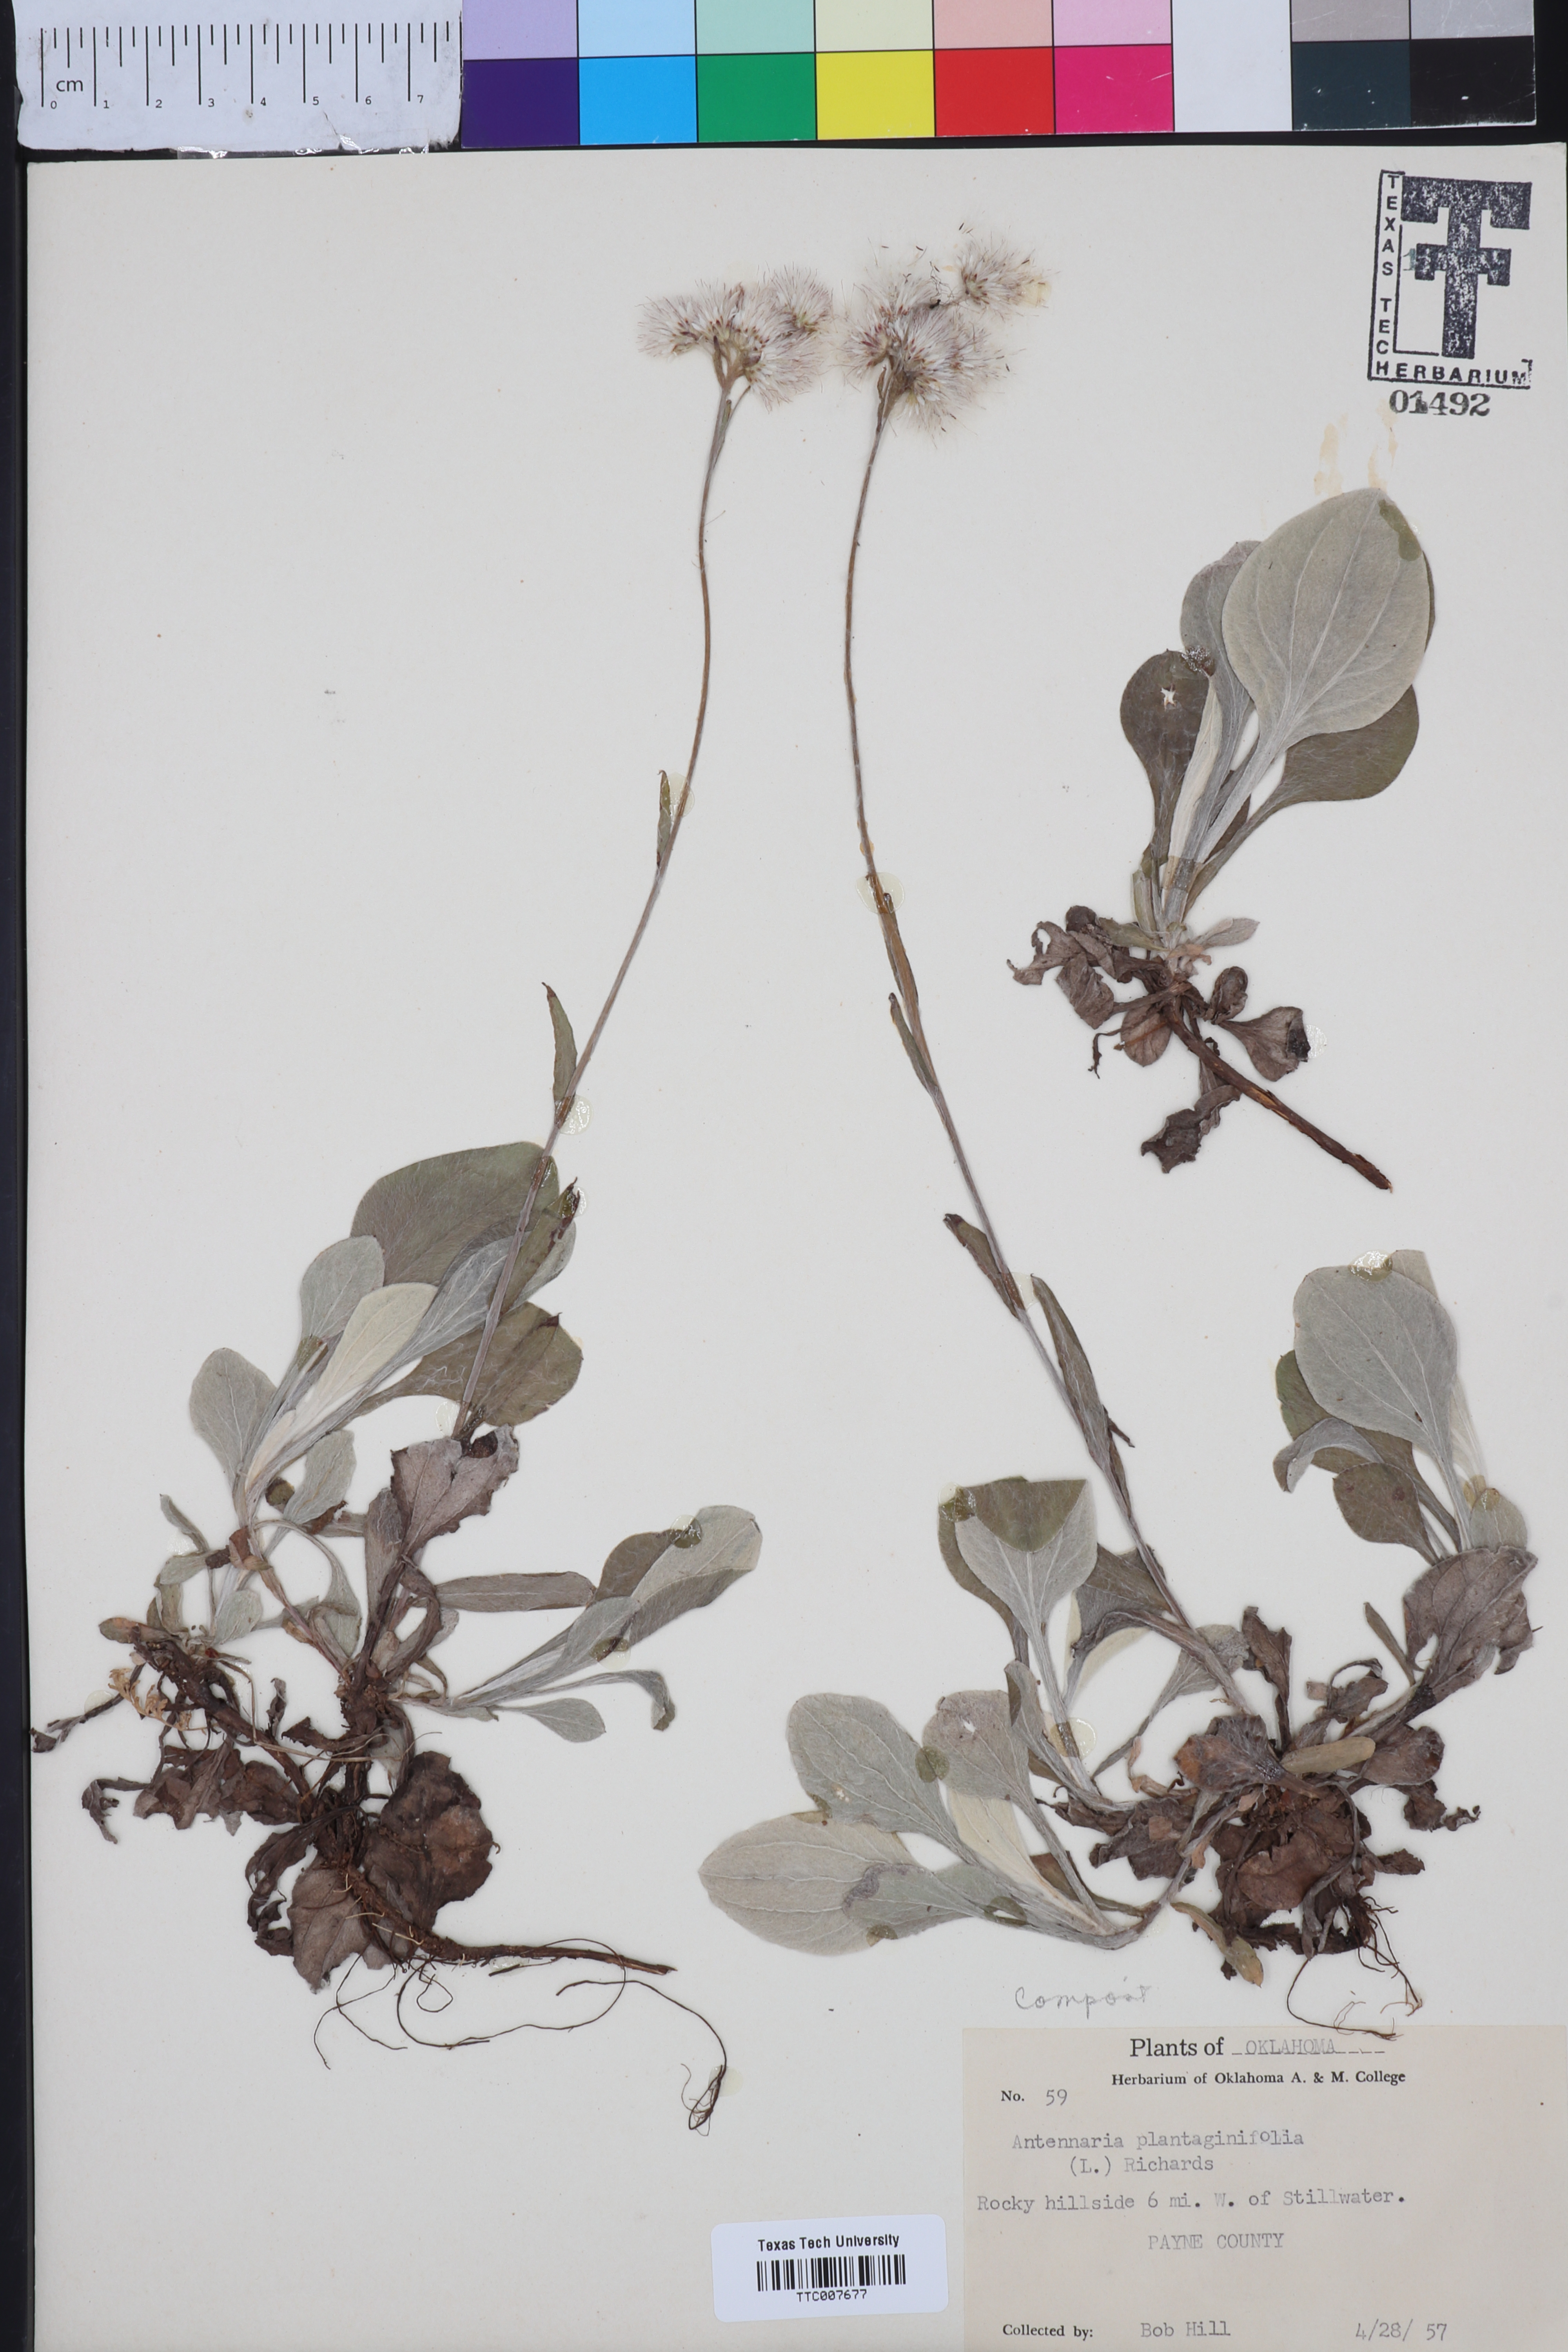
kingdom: Plantae
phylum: Tracheophyta
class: Magnoliopsida
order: Asterales
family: Asteraceae
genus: Antennaria
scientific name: Antennaria plantaginifolia
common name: Plantain-leaved pussytoes
